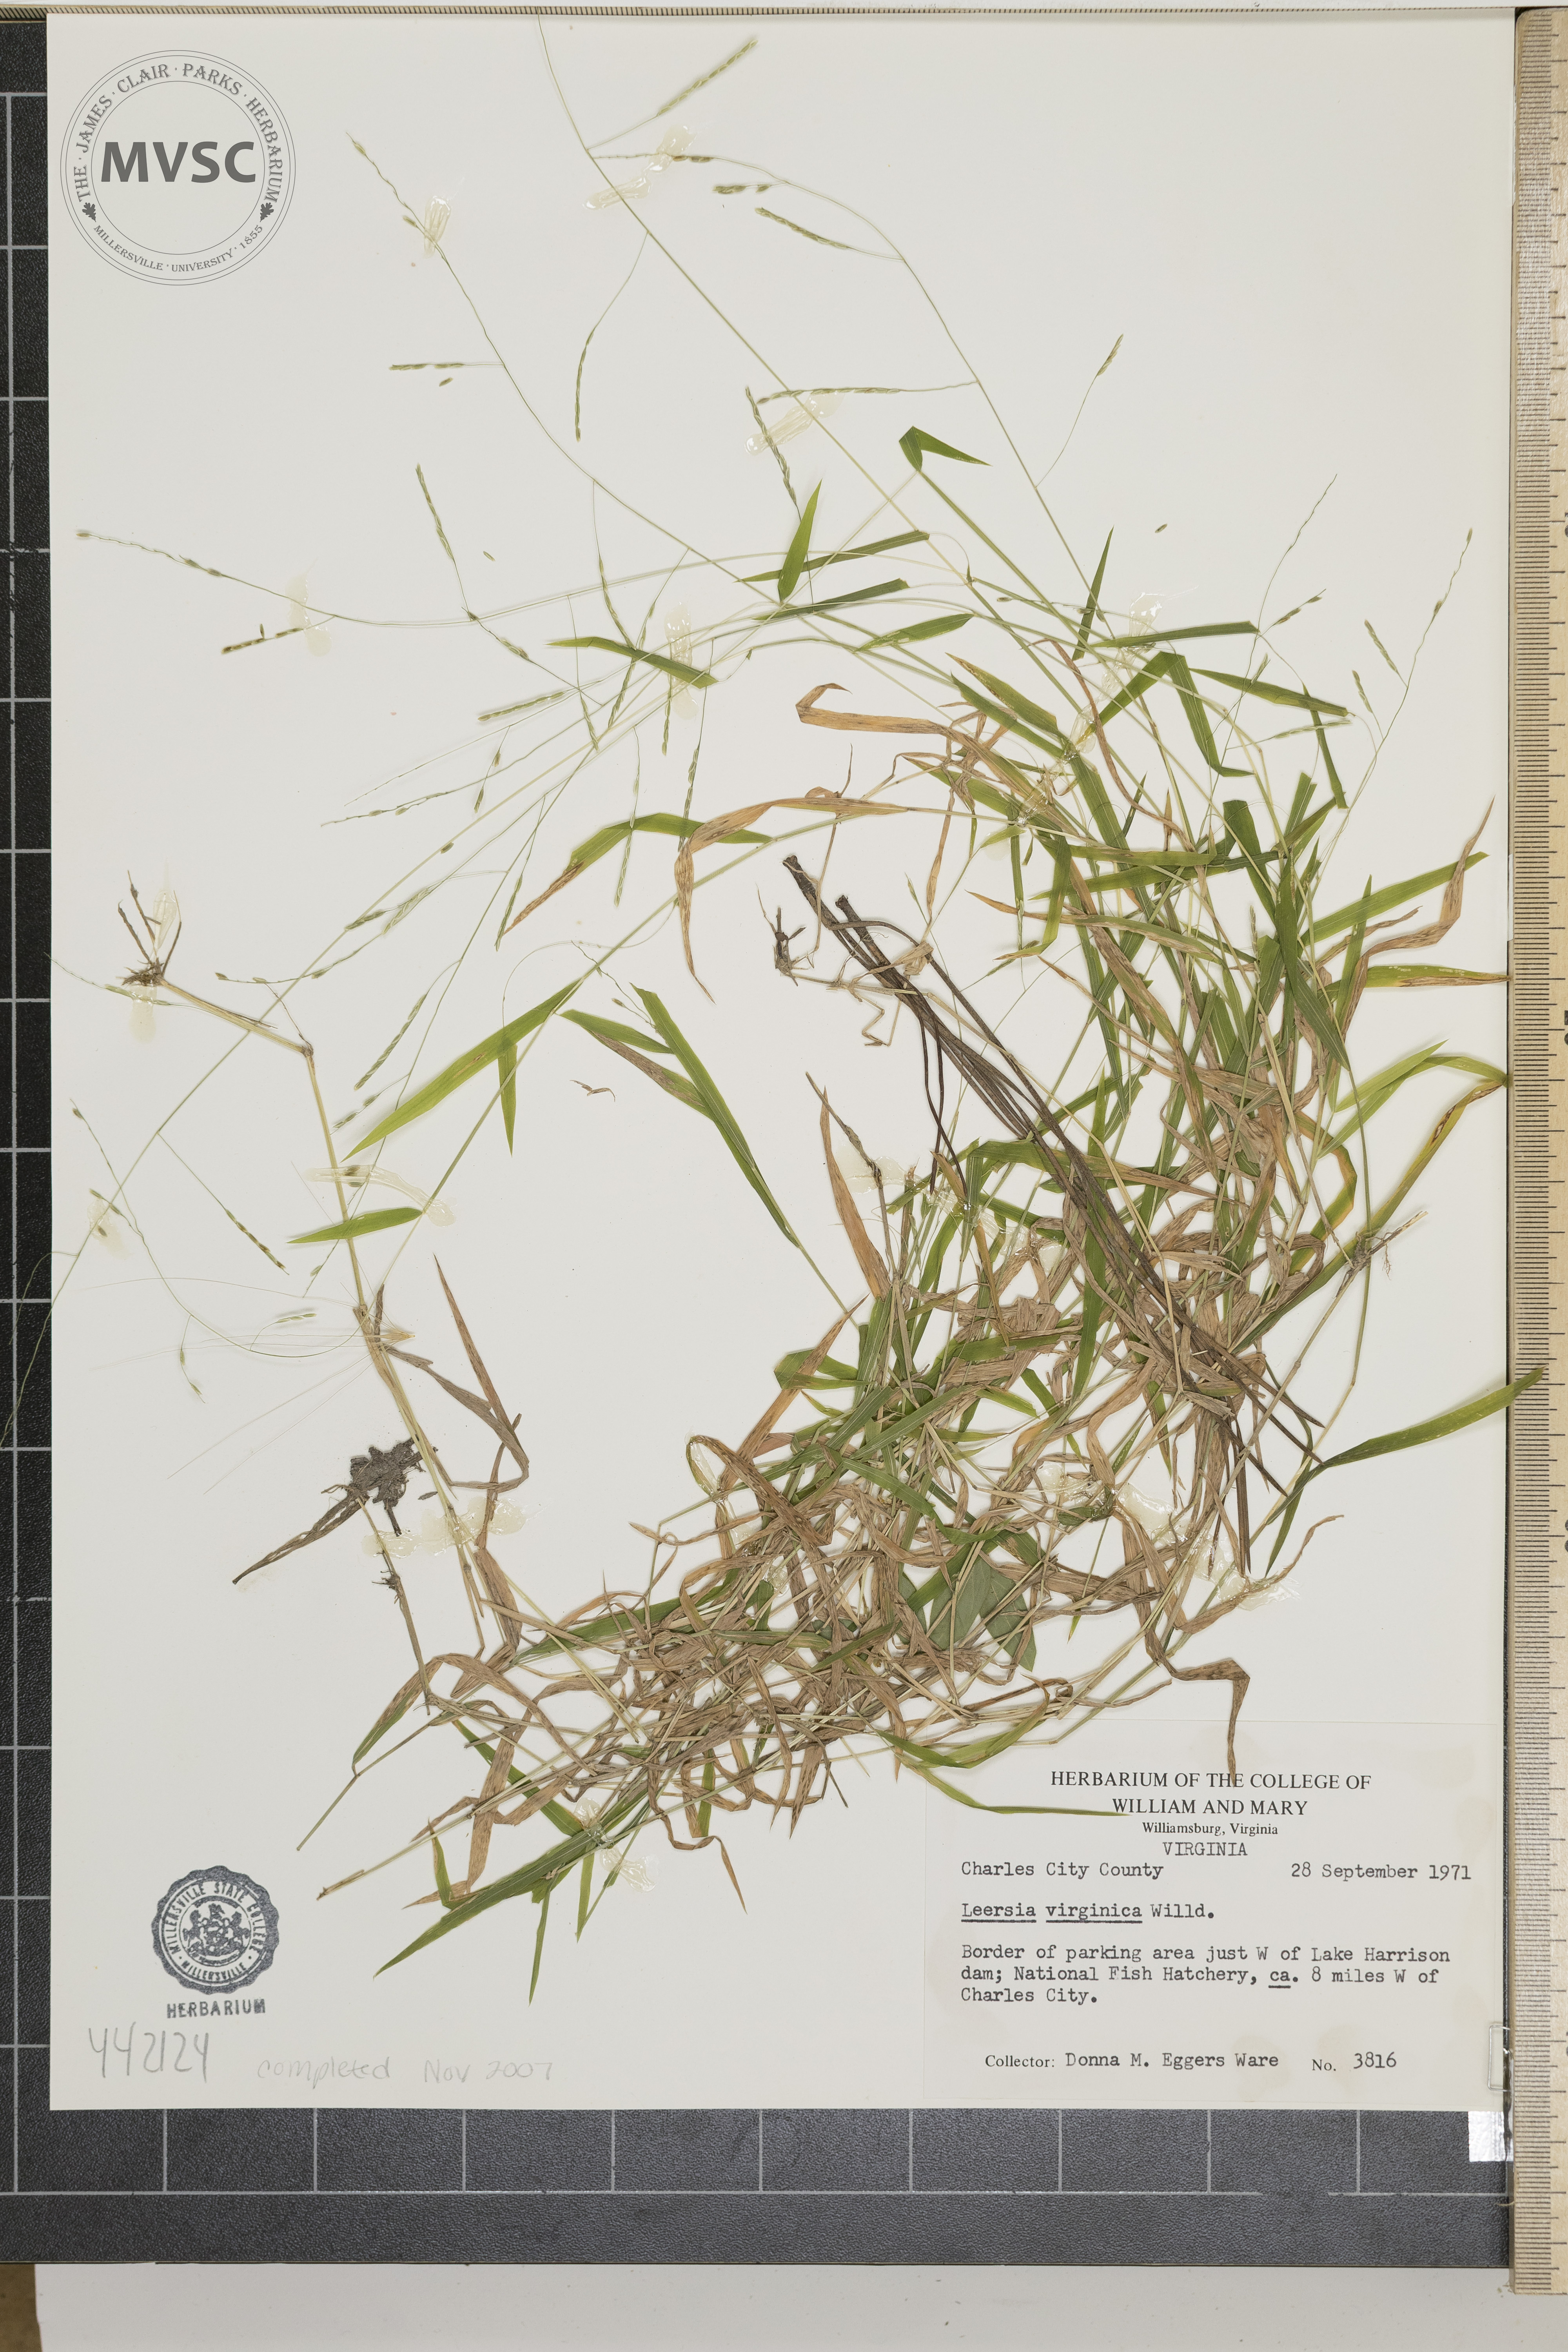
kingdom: Plantae
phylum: Tracheophyta
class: Liliopsida
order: Poales
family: Poaceae
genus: Leersia
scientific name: Leersia virginica
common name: White cutgrass
